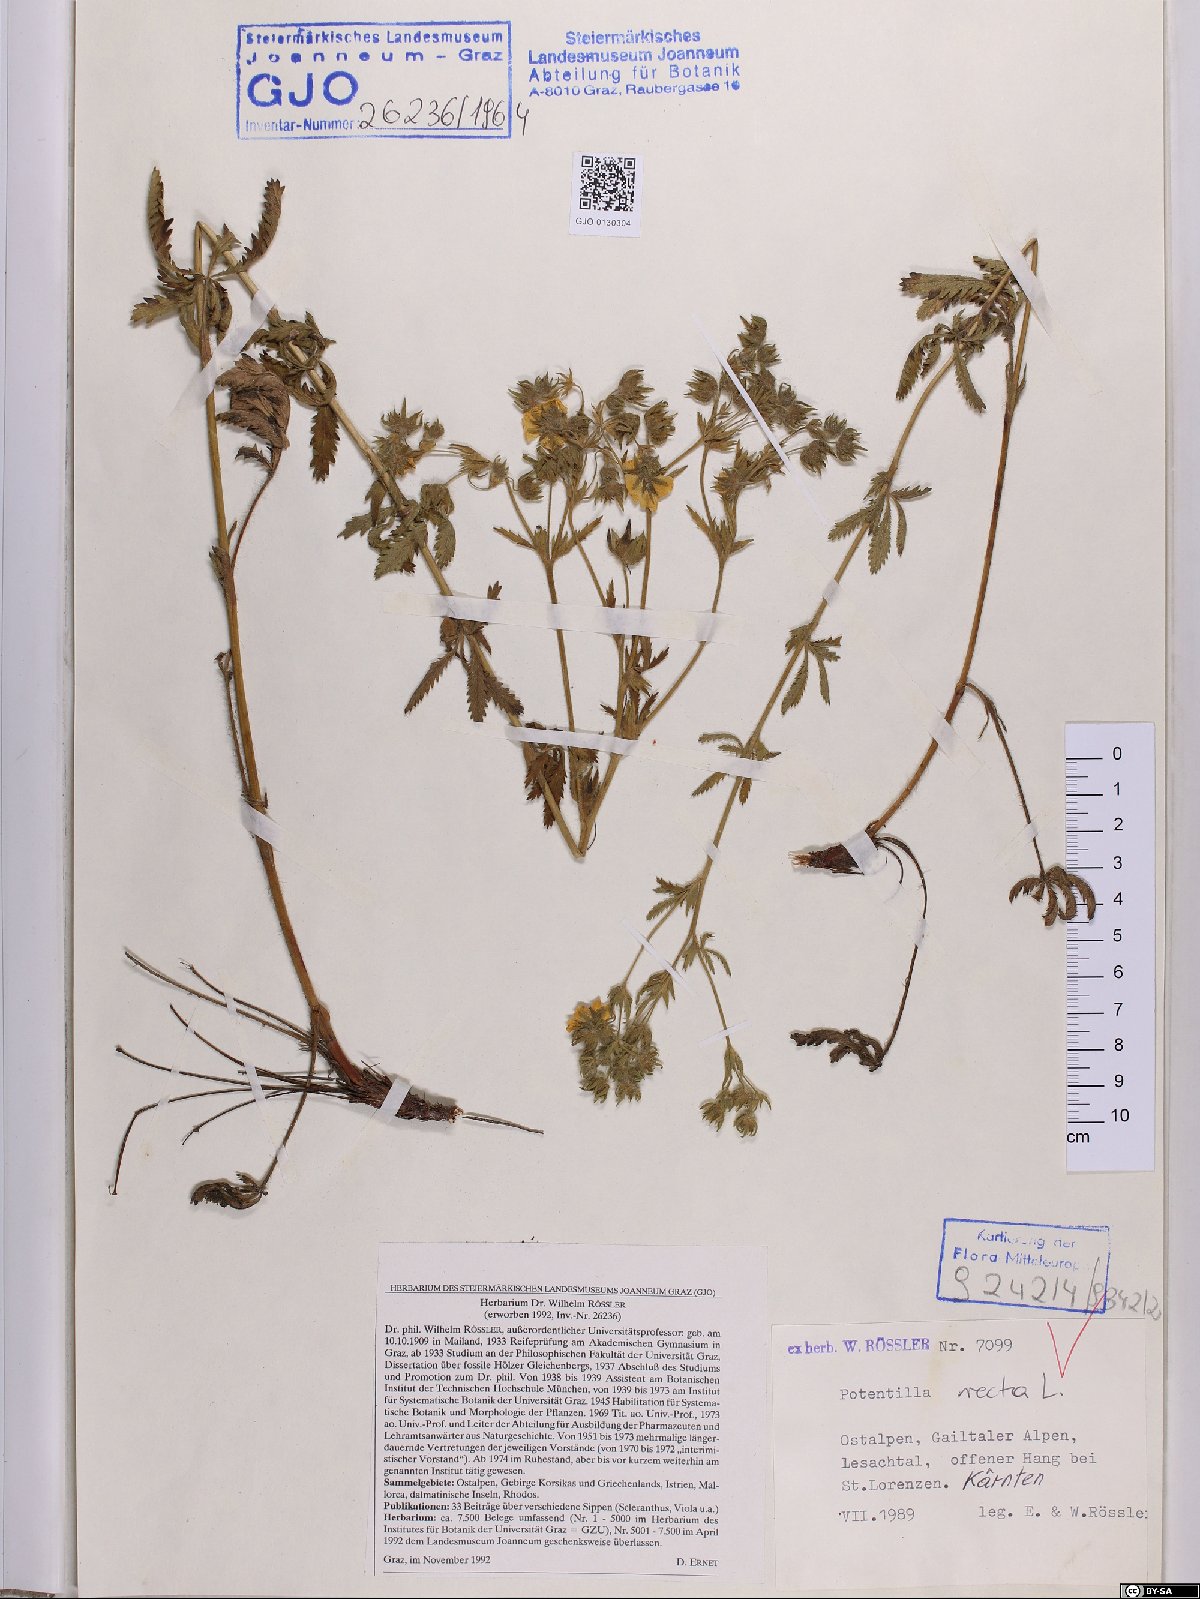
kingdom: Plantae
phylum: Tracheophyta
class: Magnoliopsida
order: Rosales
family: Rosaceae
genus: Potentilla
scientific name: Potentilla recta
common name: Sulphur cinquefoil
